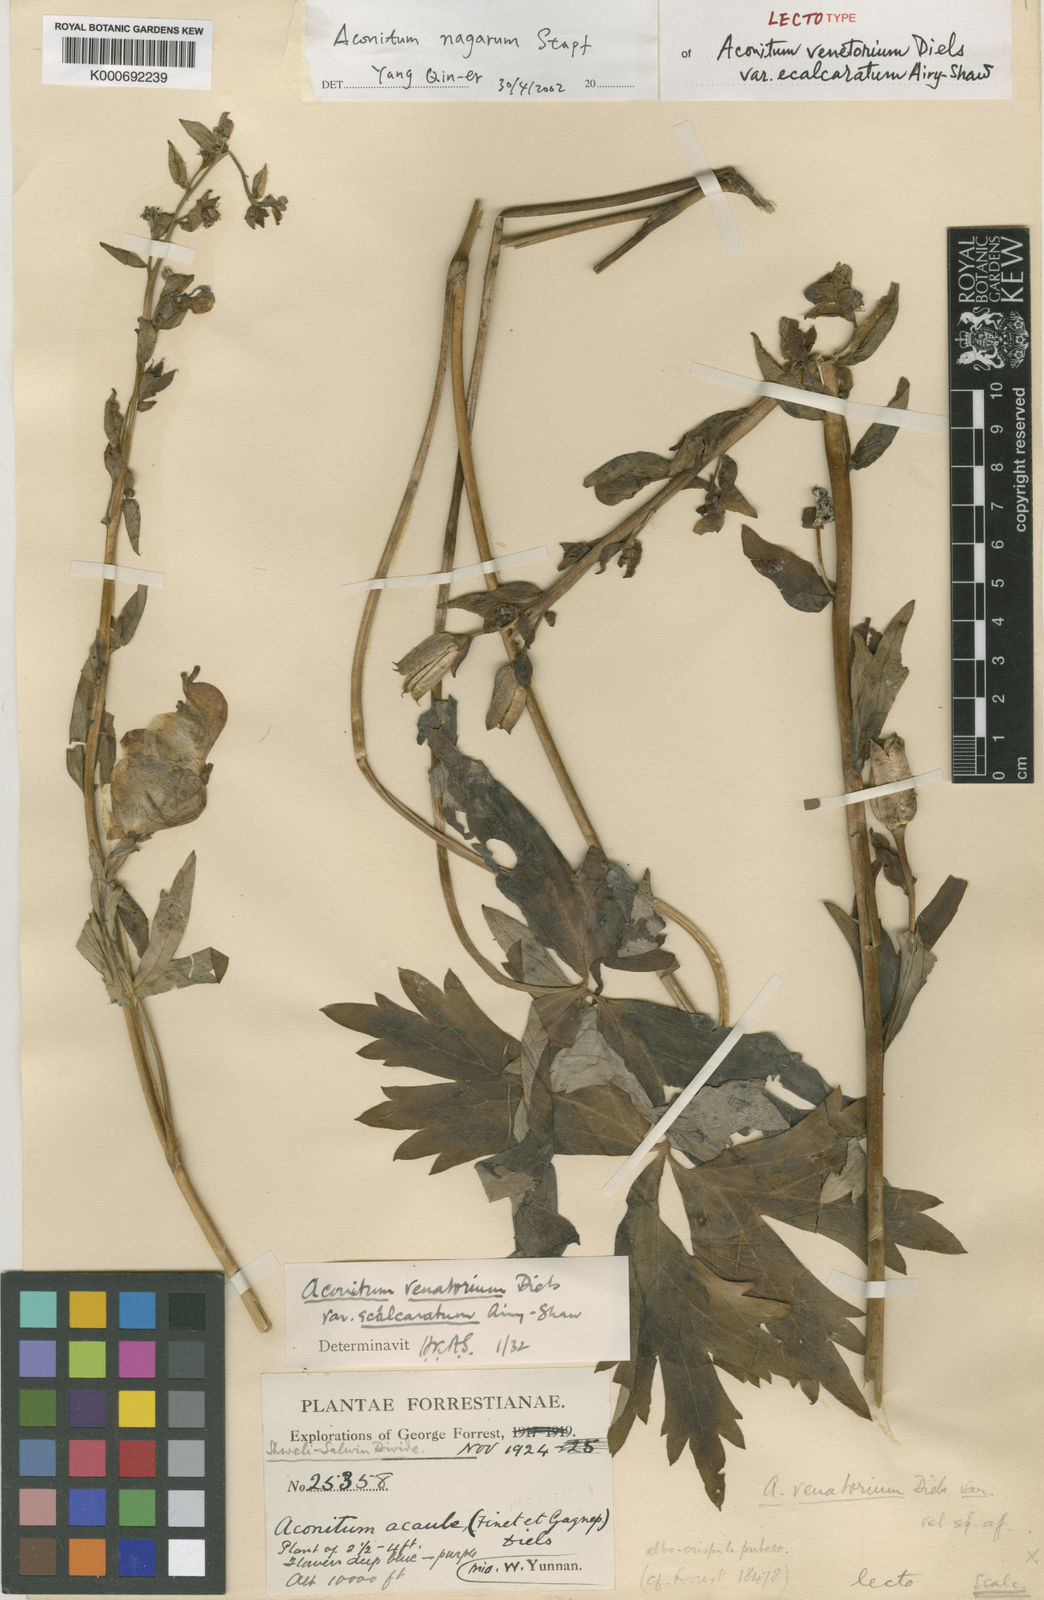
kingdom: Plantae
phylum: Tracheophyta
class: Magnoliopsida
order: Ranunculales
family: Ranunculaceae
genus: Aconitum
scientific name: Aconitum nagarum
